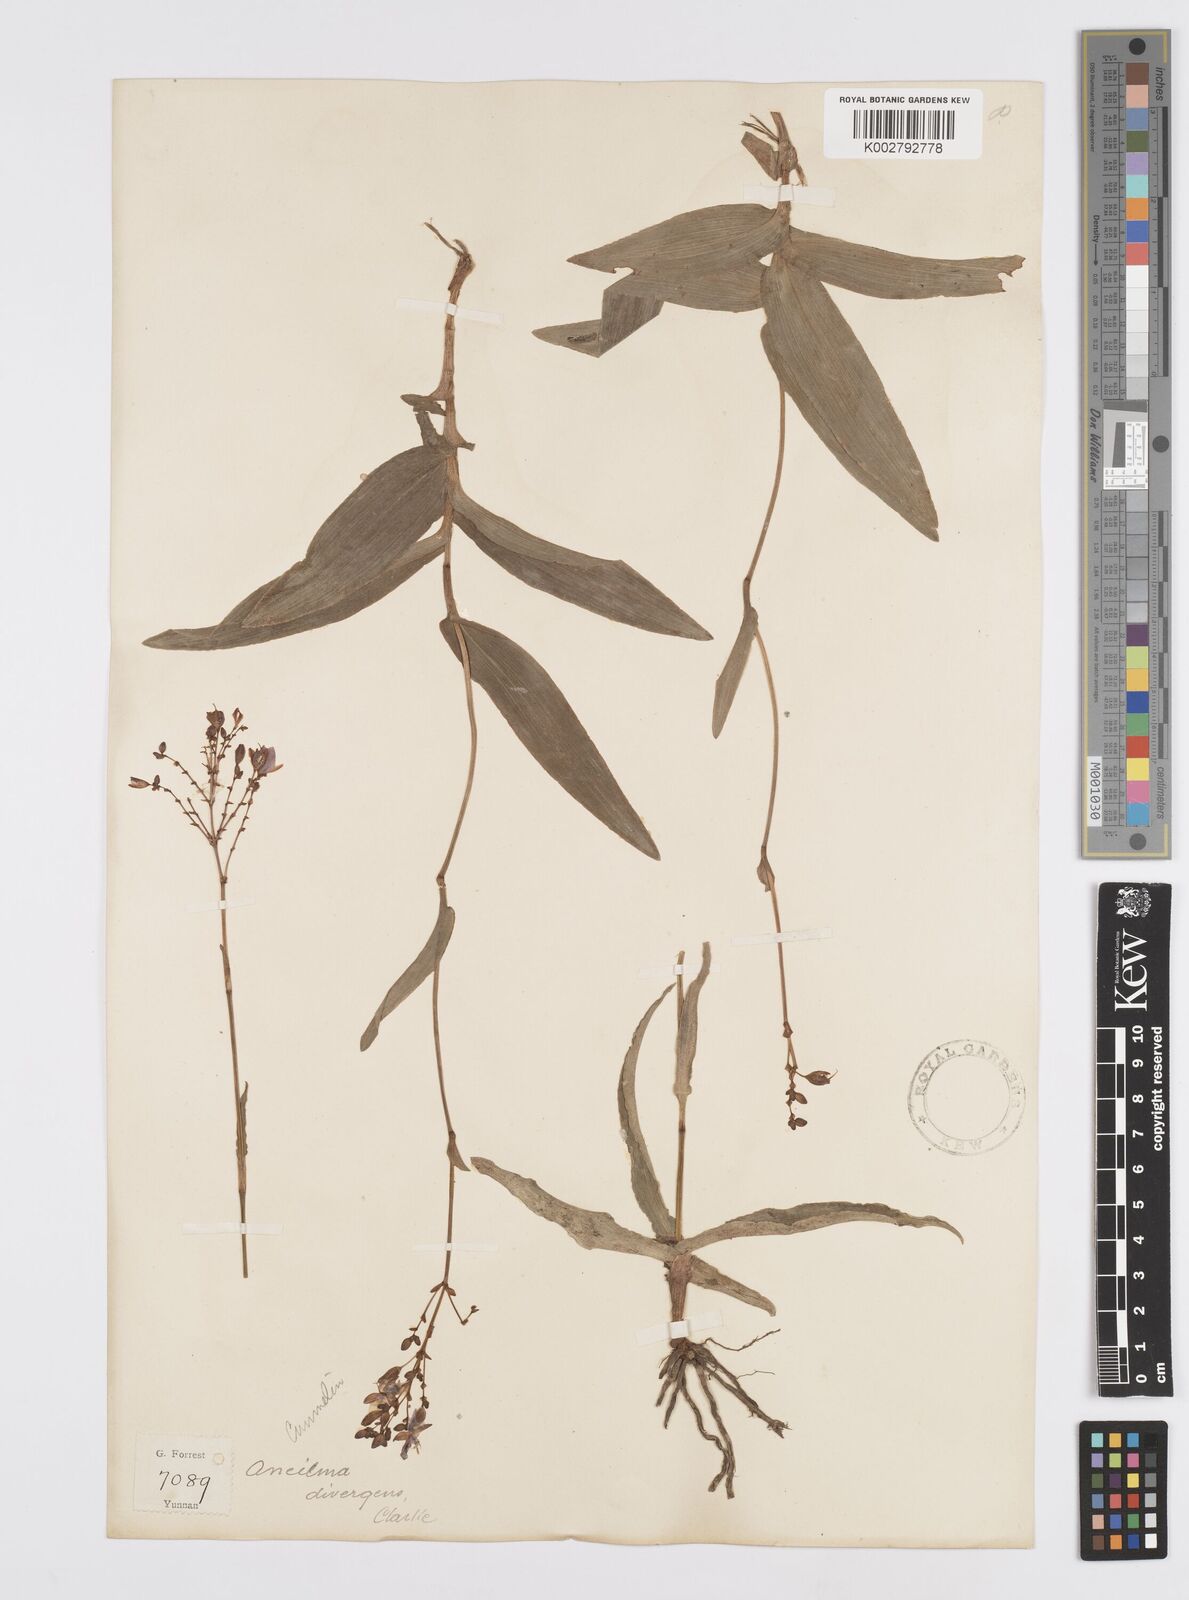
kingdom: Plantae
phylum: Tracheophyta
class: Liliopsida
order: Commelinales
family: Commelinaceae
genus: Murdannia
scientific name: Murdannia divergens
